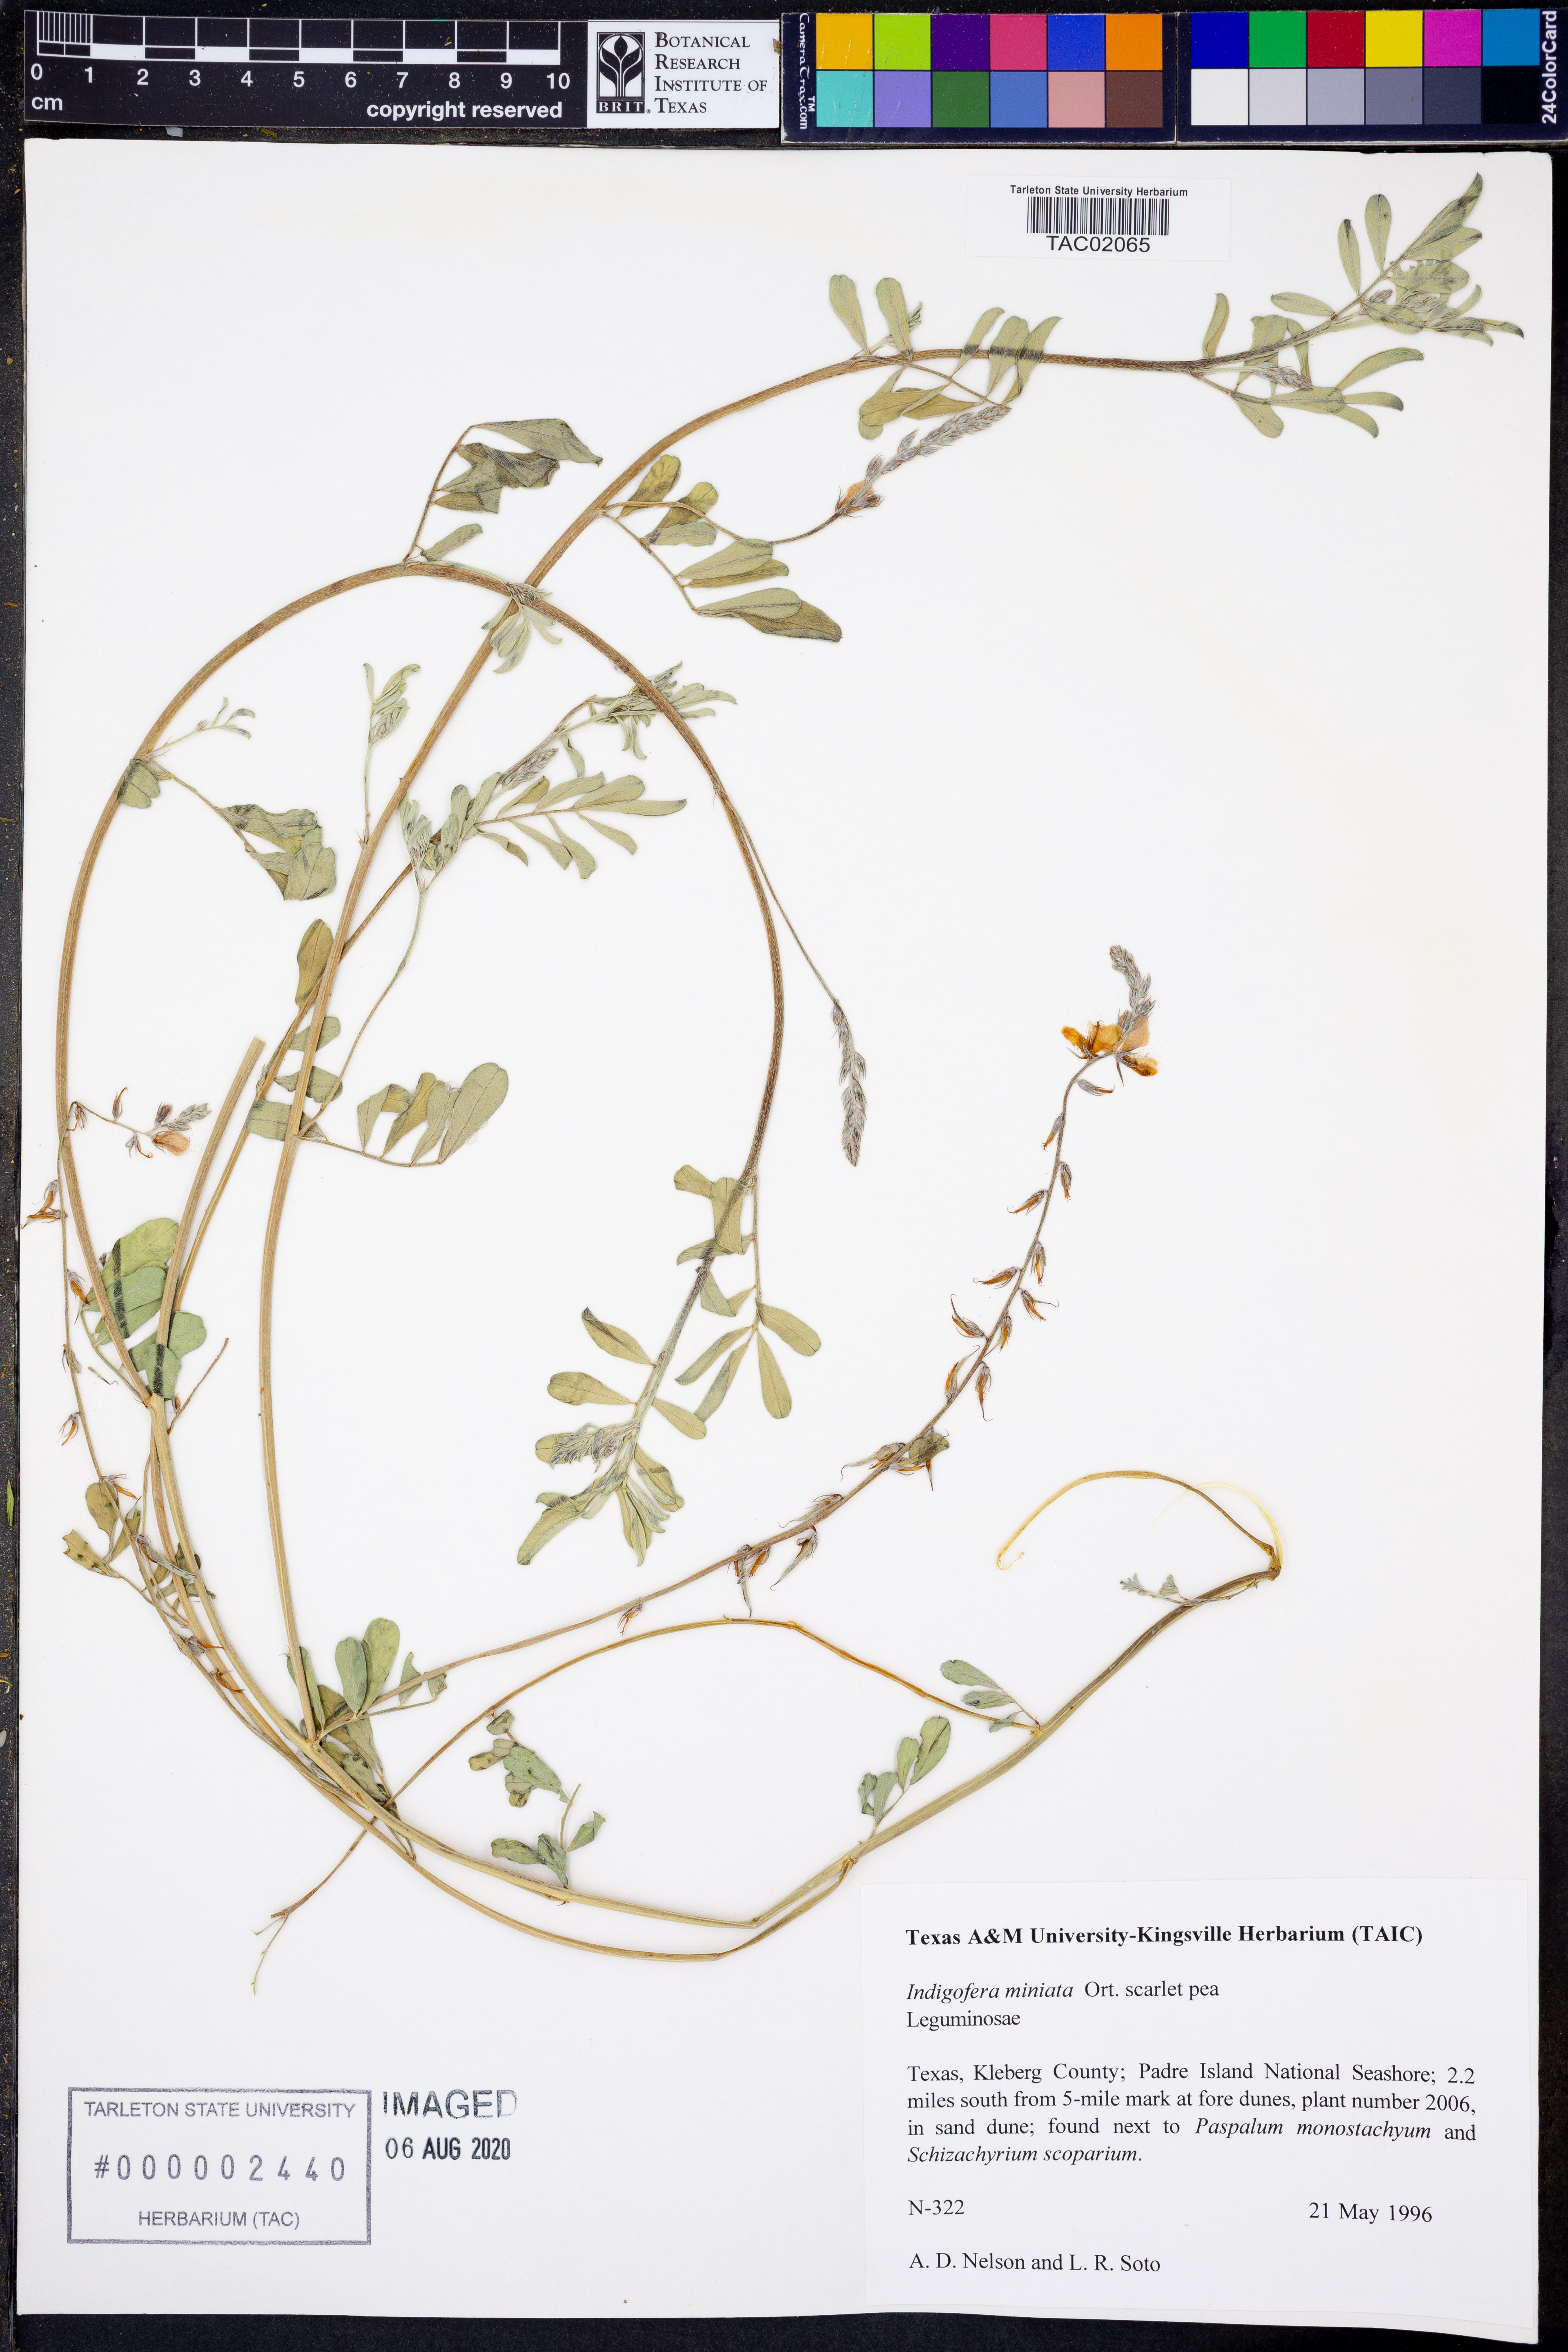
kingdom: Plantae
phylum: Tracheophyta
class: Magnoliopsida
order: Fabales
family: Fabaceae
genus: Indigofera
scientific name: Indigofera miniata
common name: Coast indigo
